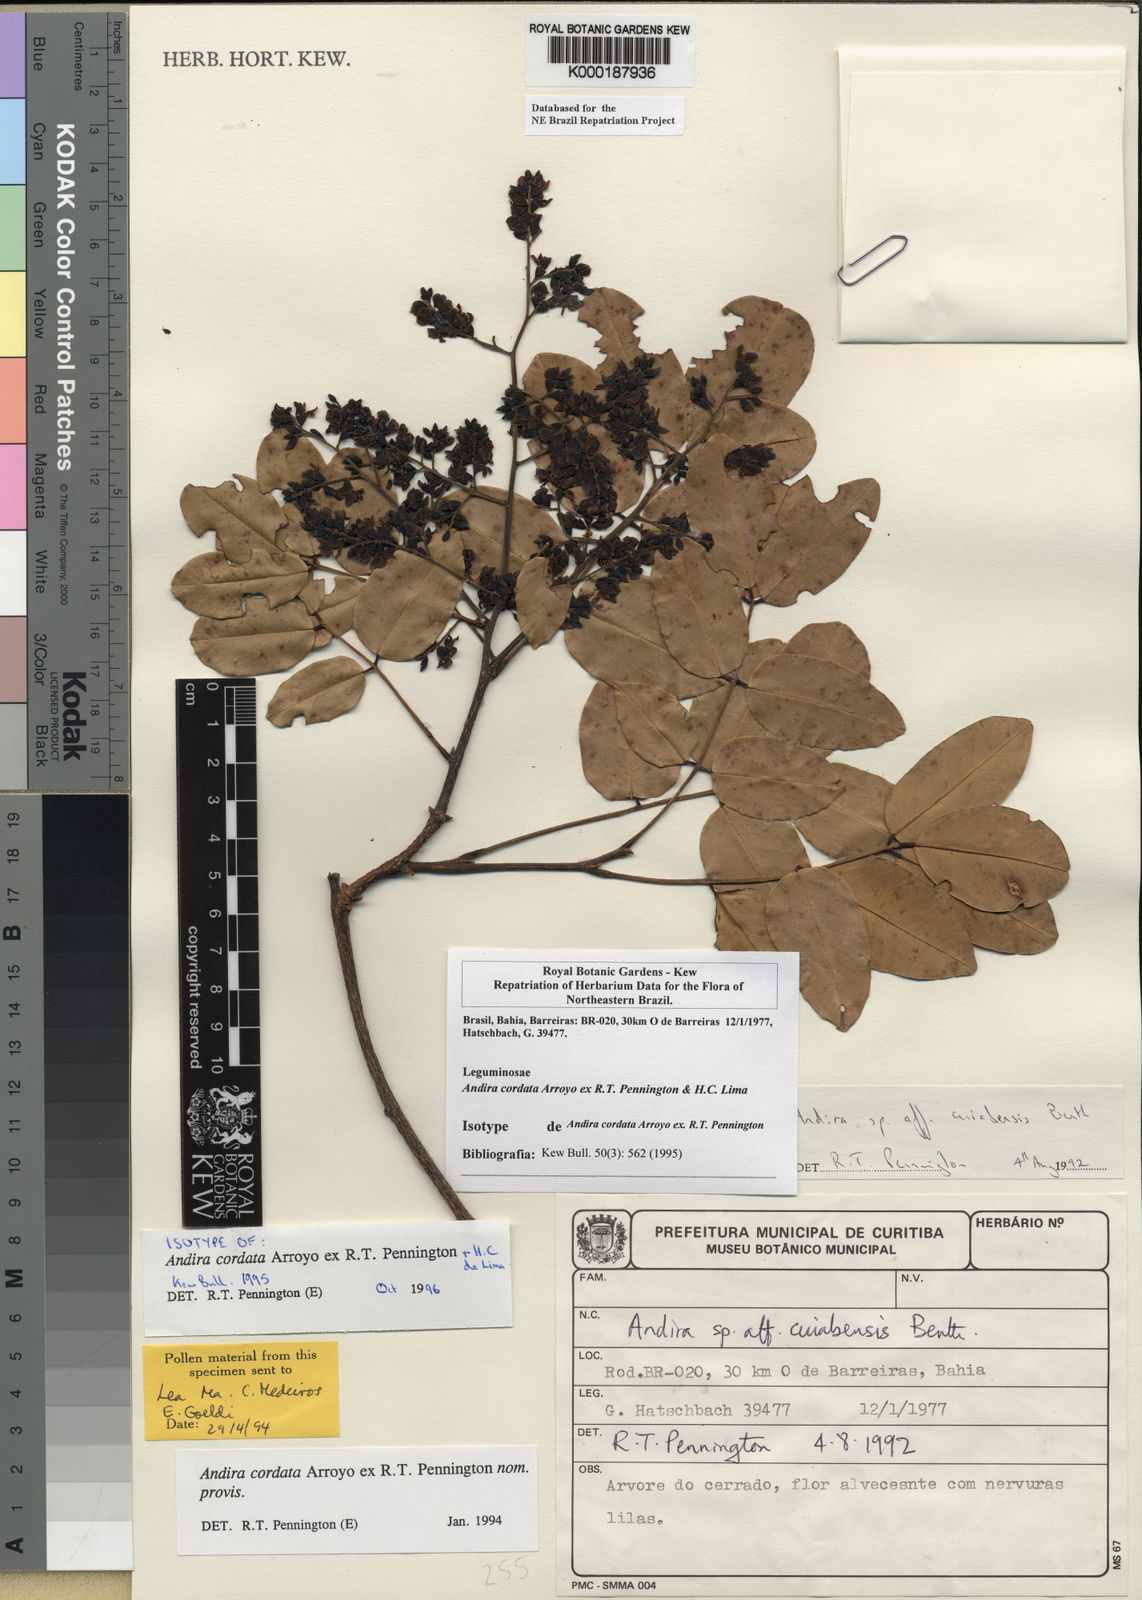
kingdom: Plantae
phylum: Tracheophyta
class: Magnoliopsida
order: Fabales
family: Fabaceae
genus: Andira
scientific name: Andira cordata
